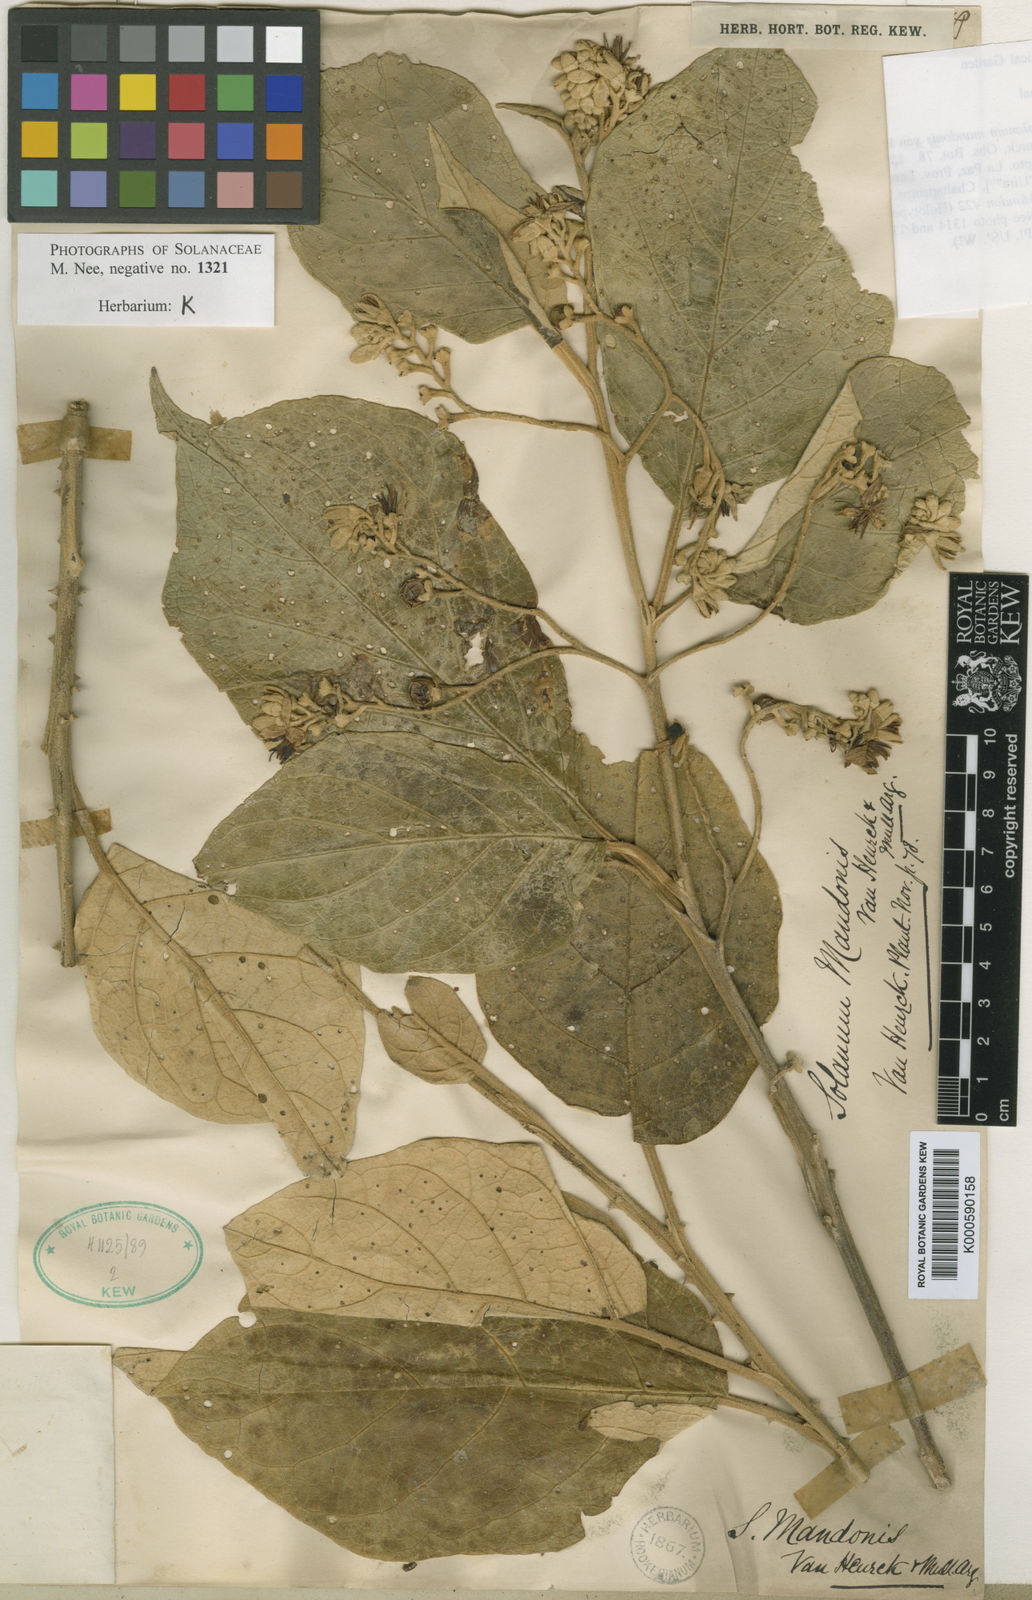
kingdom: Plantae
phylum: Tracheophyta
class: Magnoliopsida
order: Solanales
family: Solanaceae
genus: Solanum
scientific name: Solanum albidum
